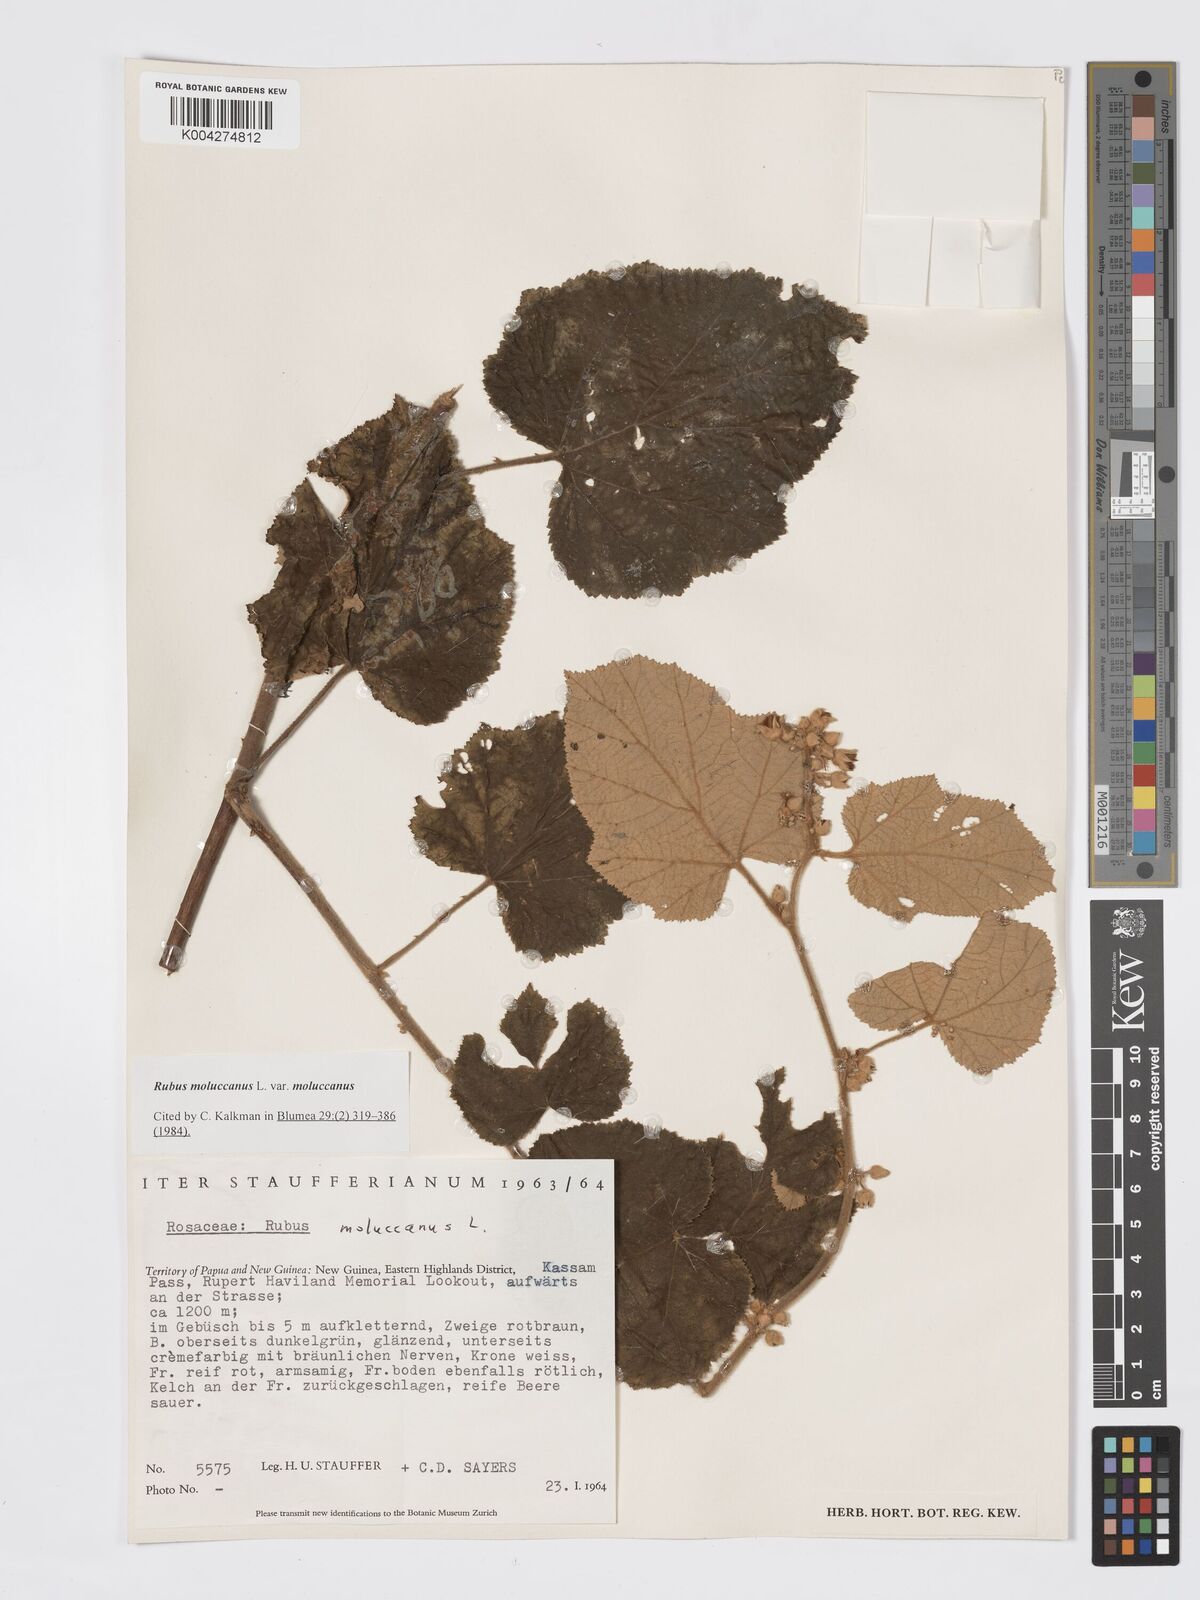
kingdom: Plantae
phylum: Tracheophyta
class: Magnoliopsida
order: Rosales
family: Rosaceae
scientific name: Rosaceae
